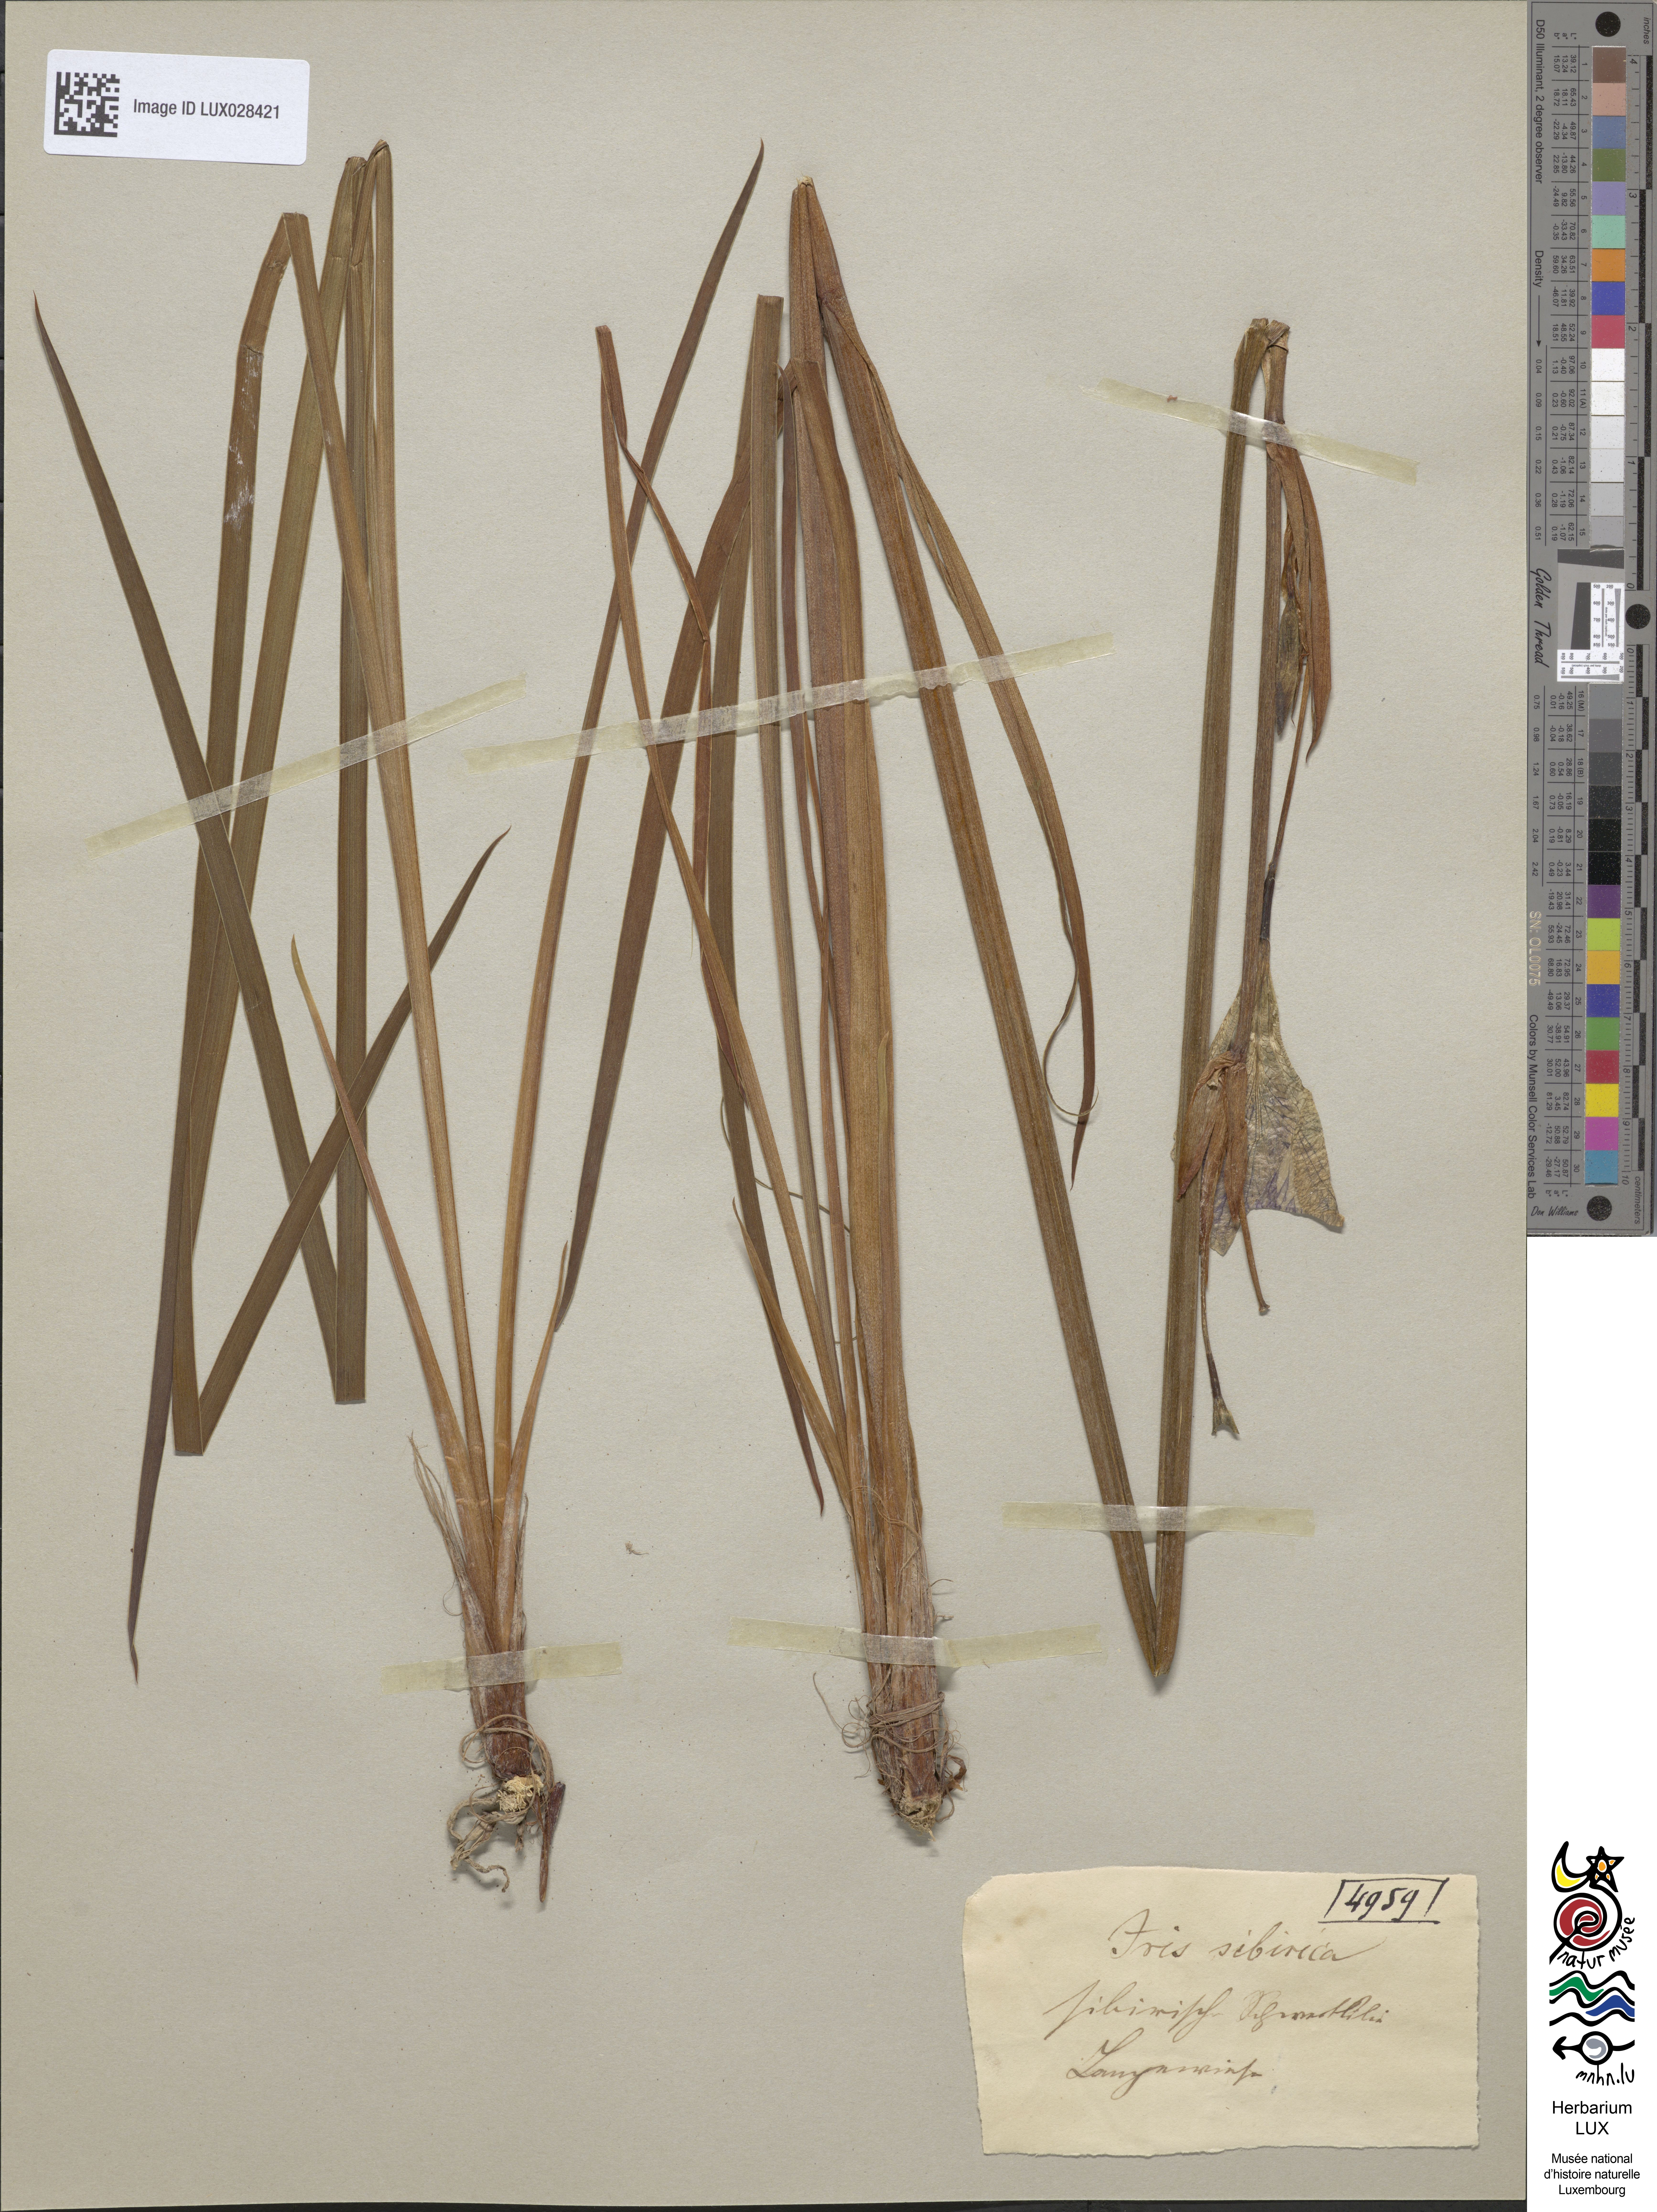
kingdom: Animalia
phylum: Arthropoda
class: Insecta
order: Mantodea
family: Eremiaphilidae
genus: Iris
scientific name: Iris
